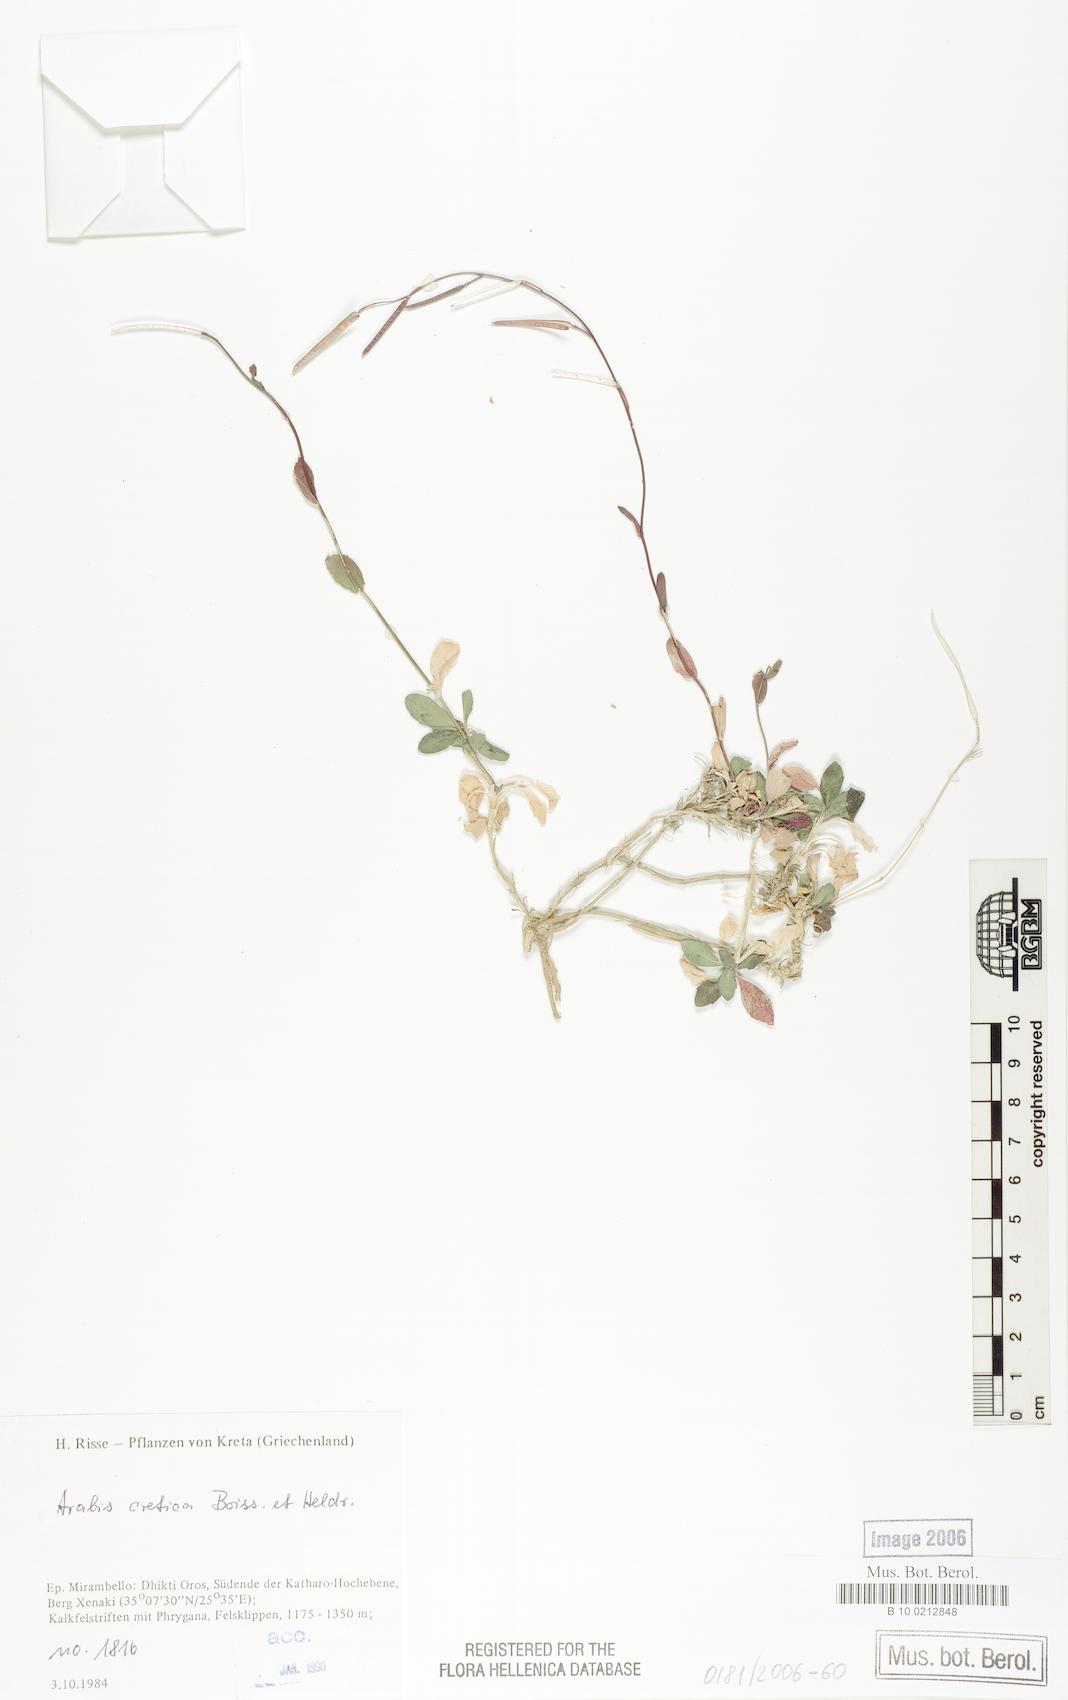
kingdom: Plantae
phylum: Tracheophyta
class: Magnoliopsida
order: Brassicales
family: Brassicaceae
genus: Arabis
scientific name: Arabis cretica
